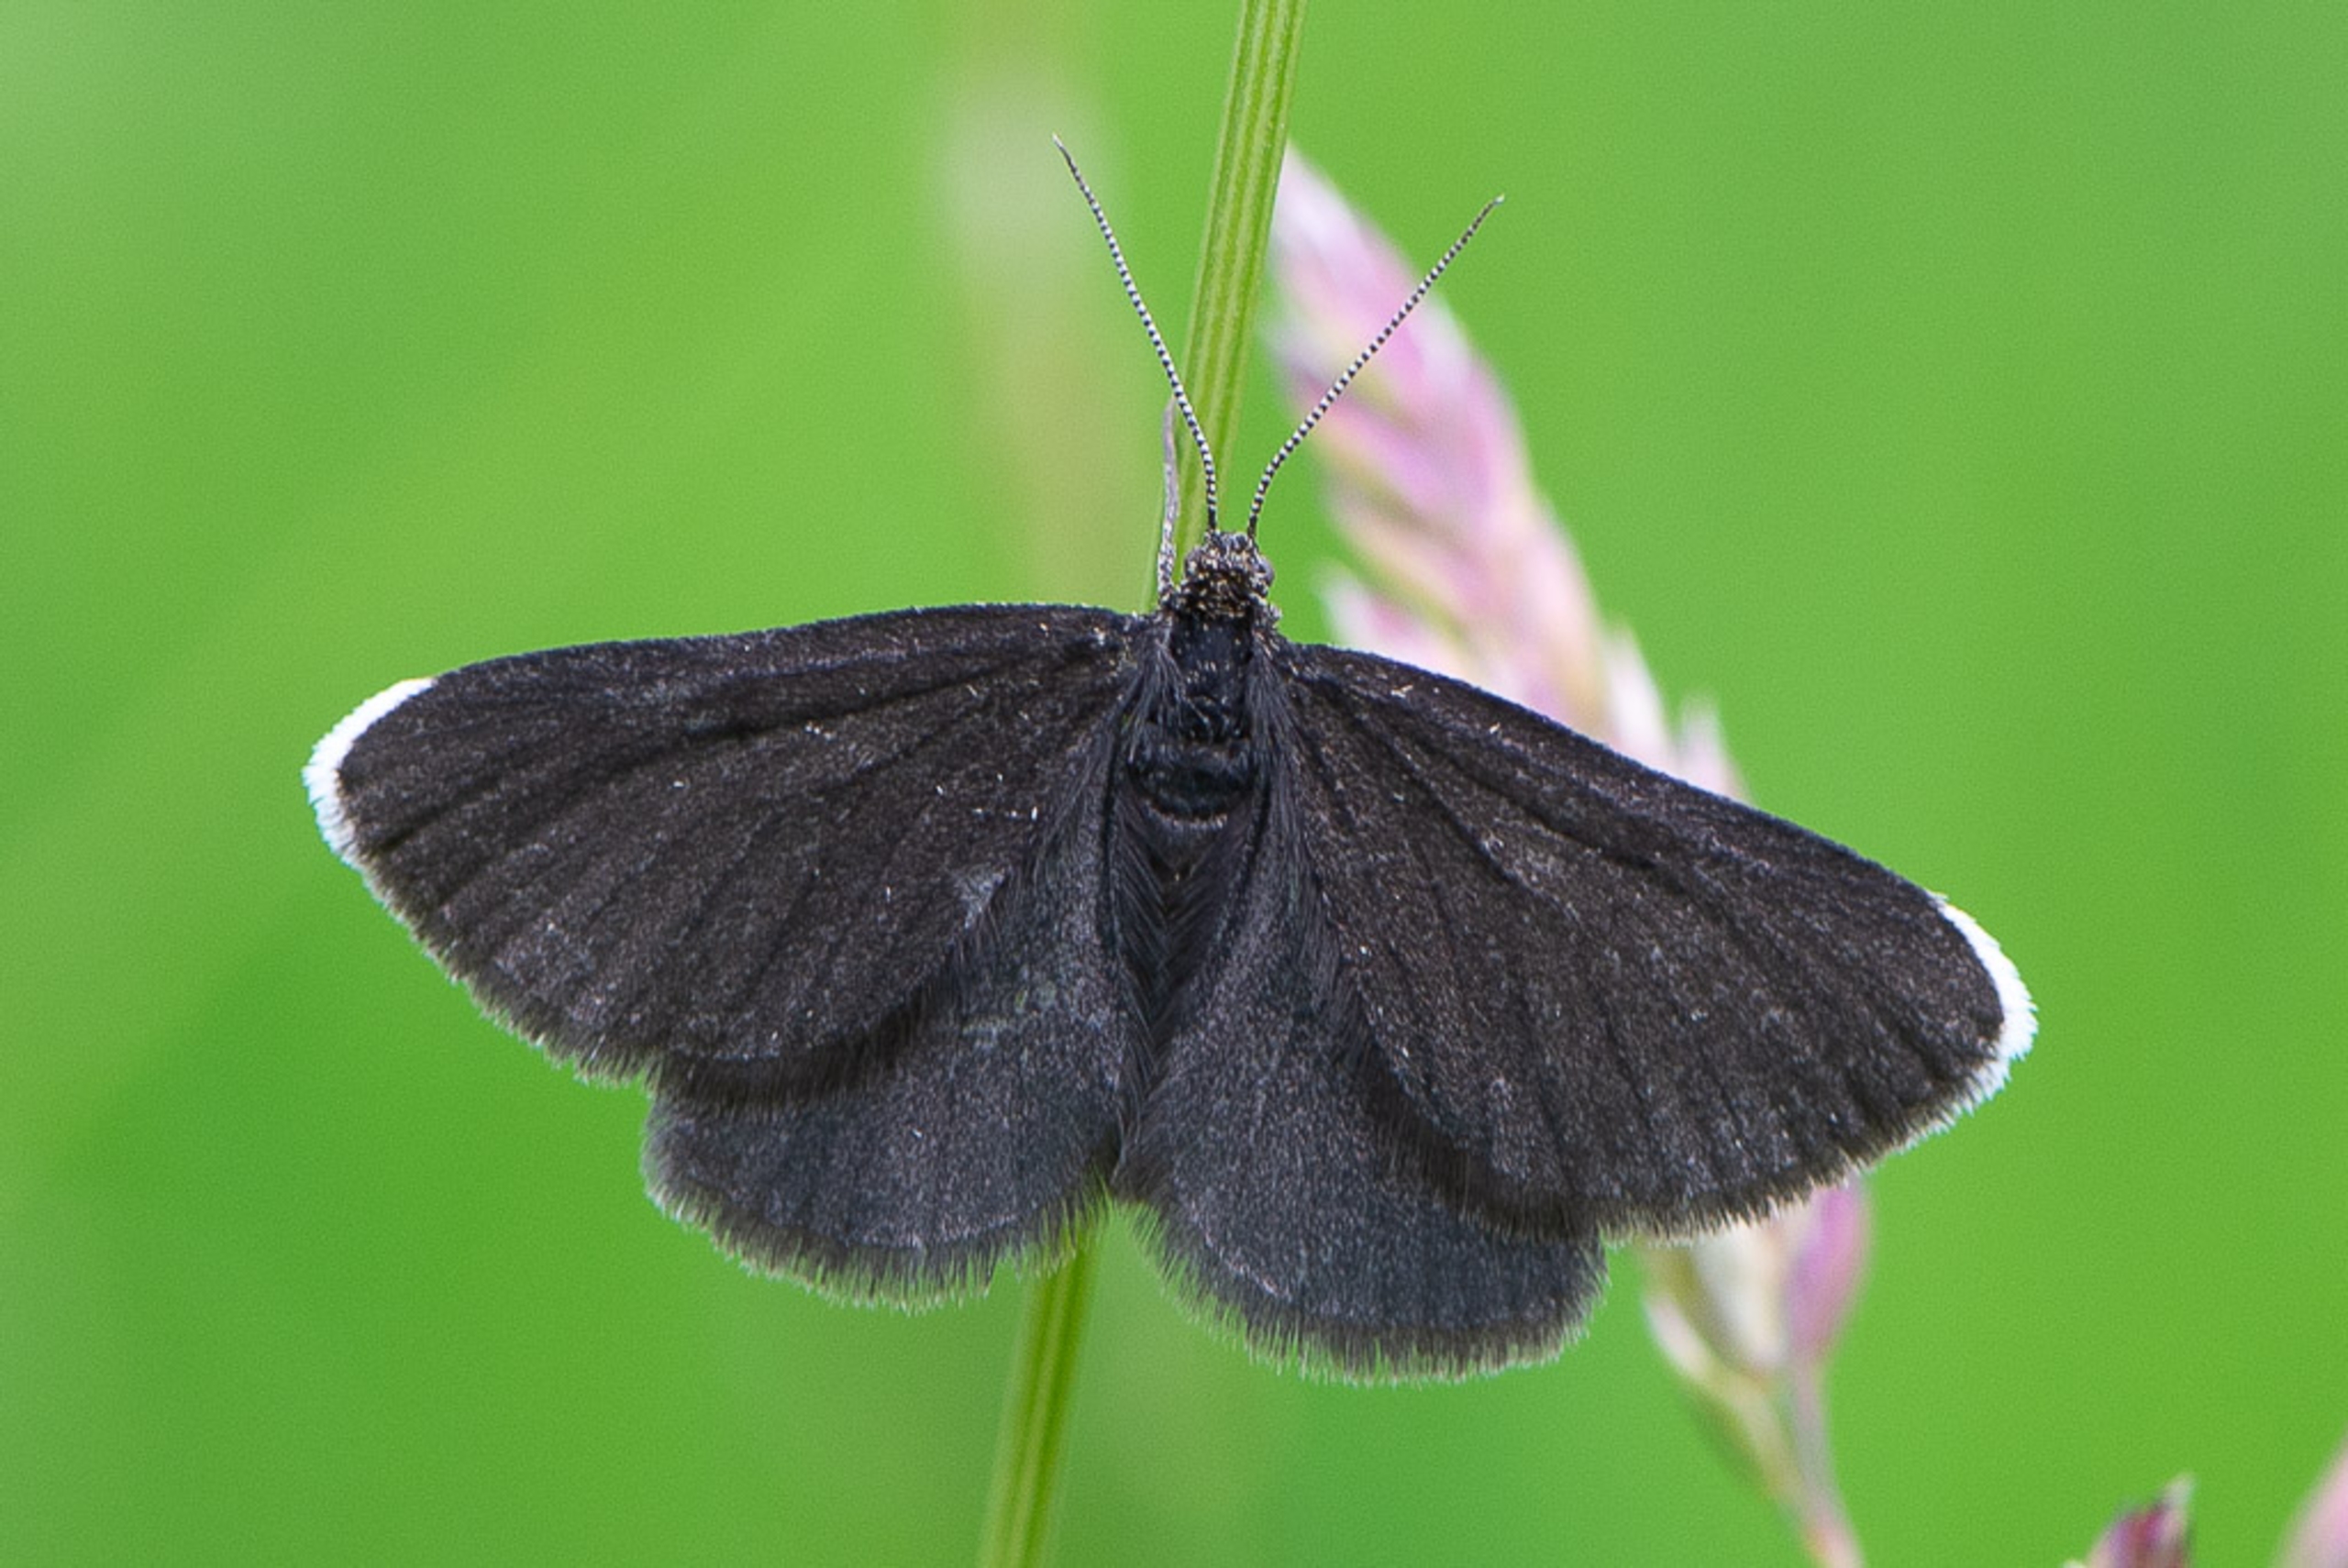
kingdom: Animalia
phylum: Arthropoda
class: Insecta
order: Lepidoptera
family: Geometridae
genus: Odezia
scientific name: Odezia atrata
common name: Sort måler
